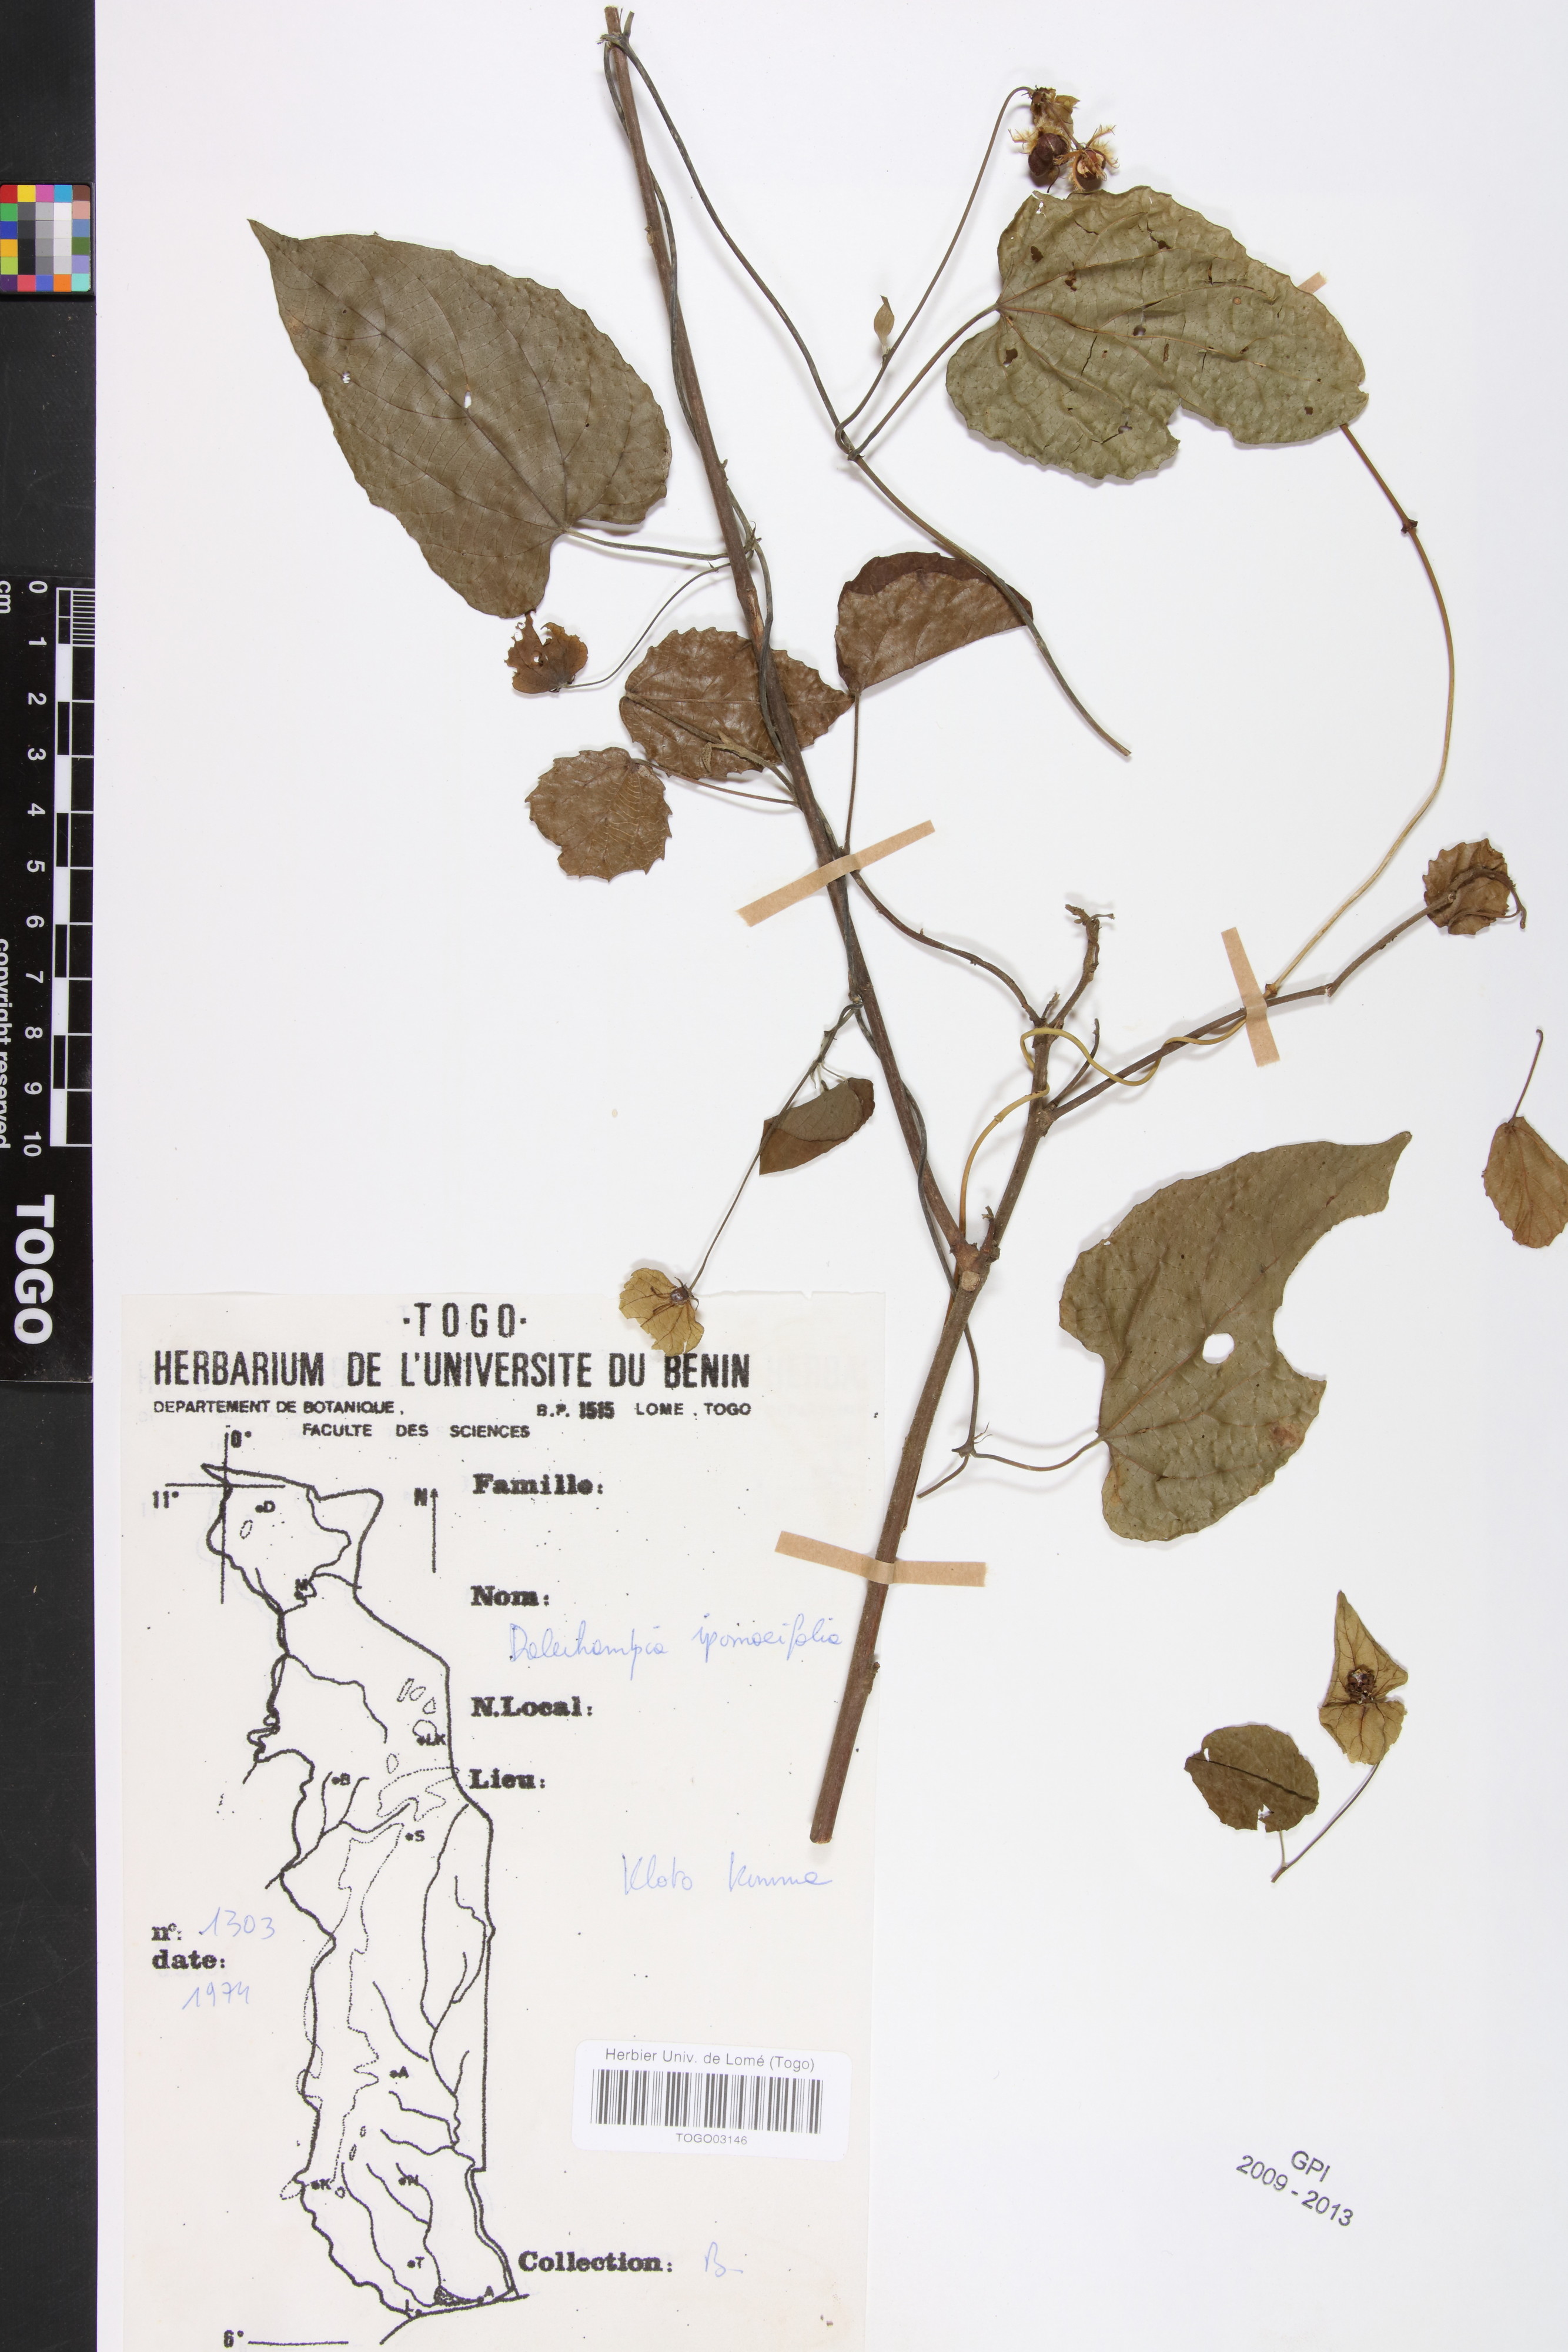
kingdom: Plantae
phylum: Tracheophyta
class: Magnoliopsida
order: Malpighiales
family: Euphorbiaceae
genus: Dalechampia
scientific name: Dalechampia ipomoeifolia
